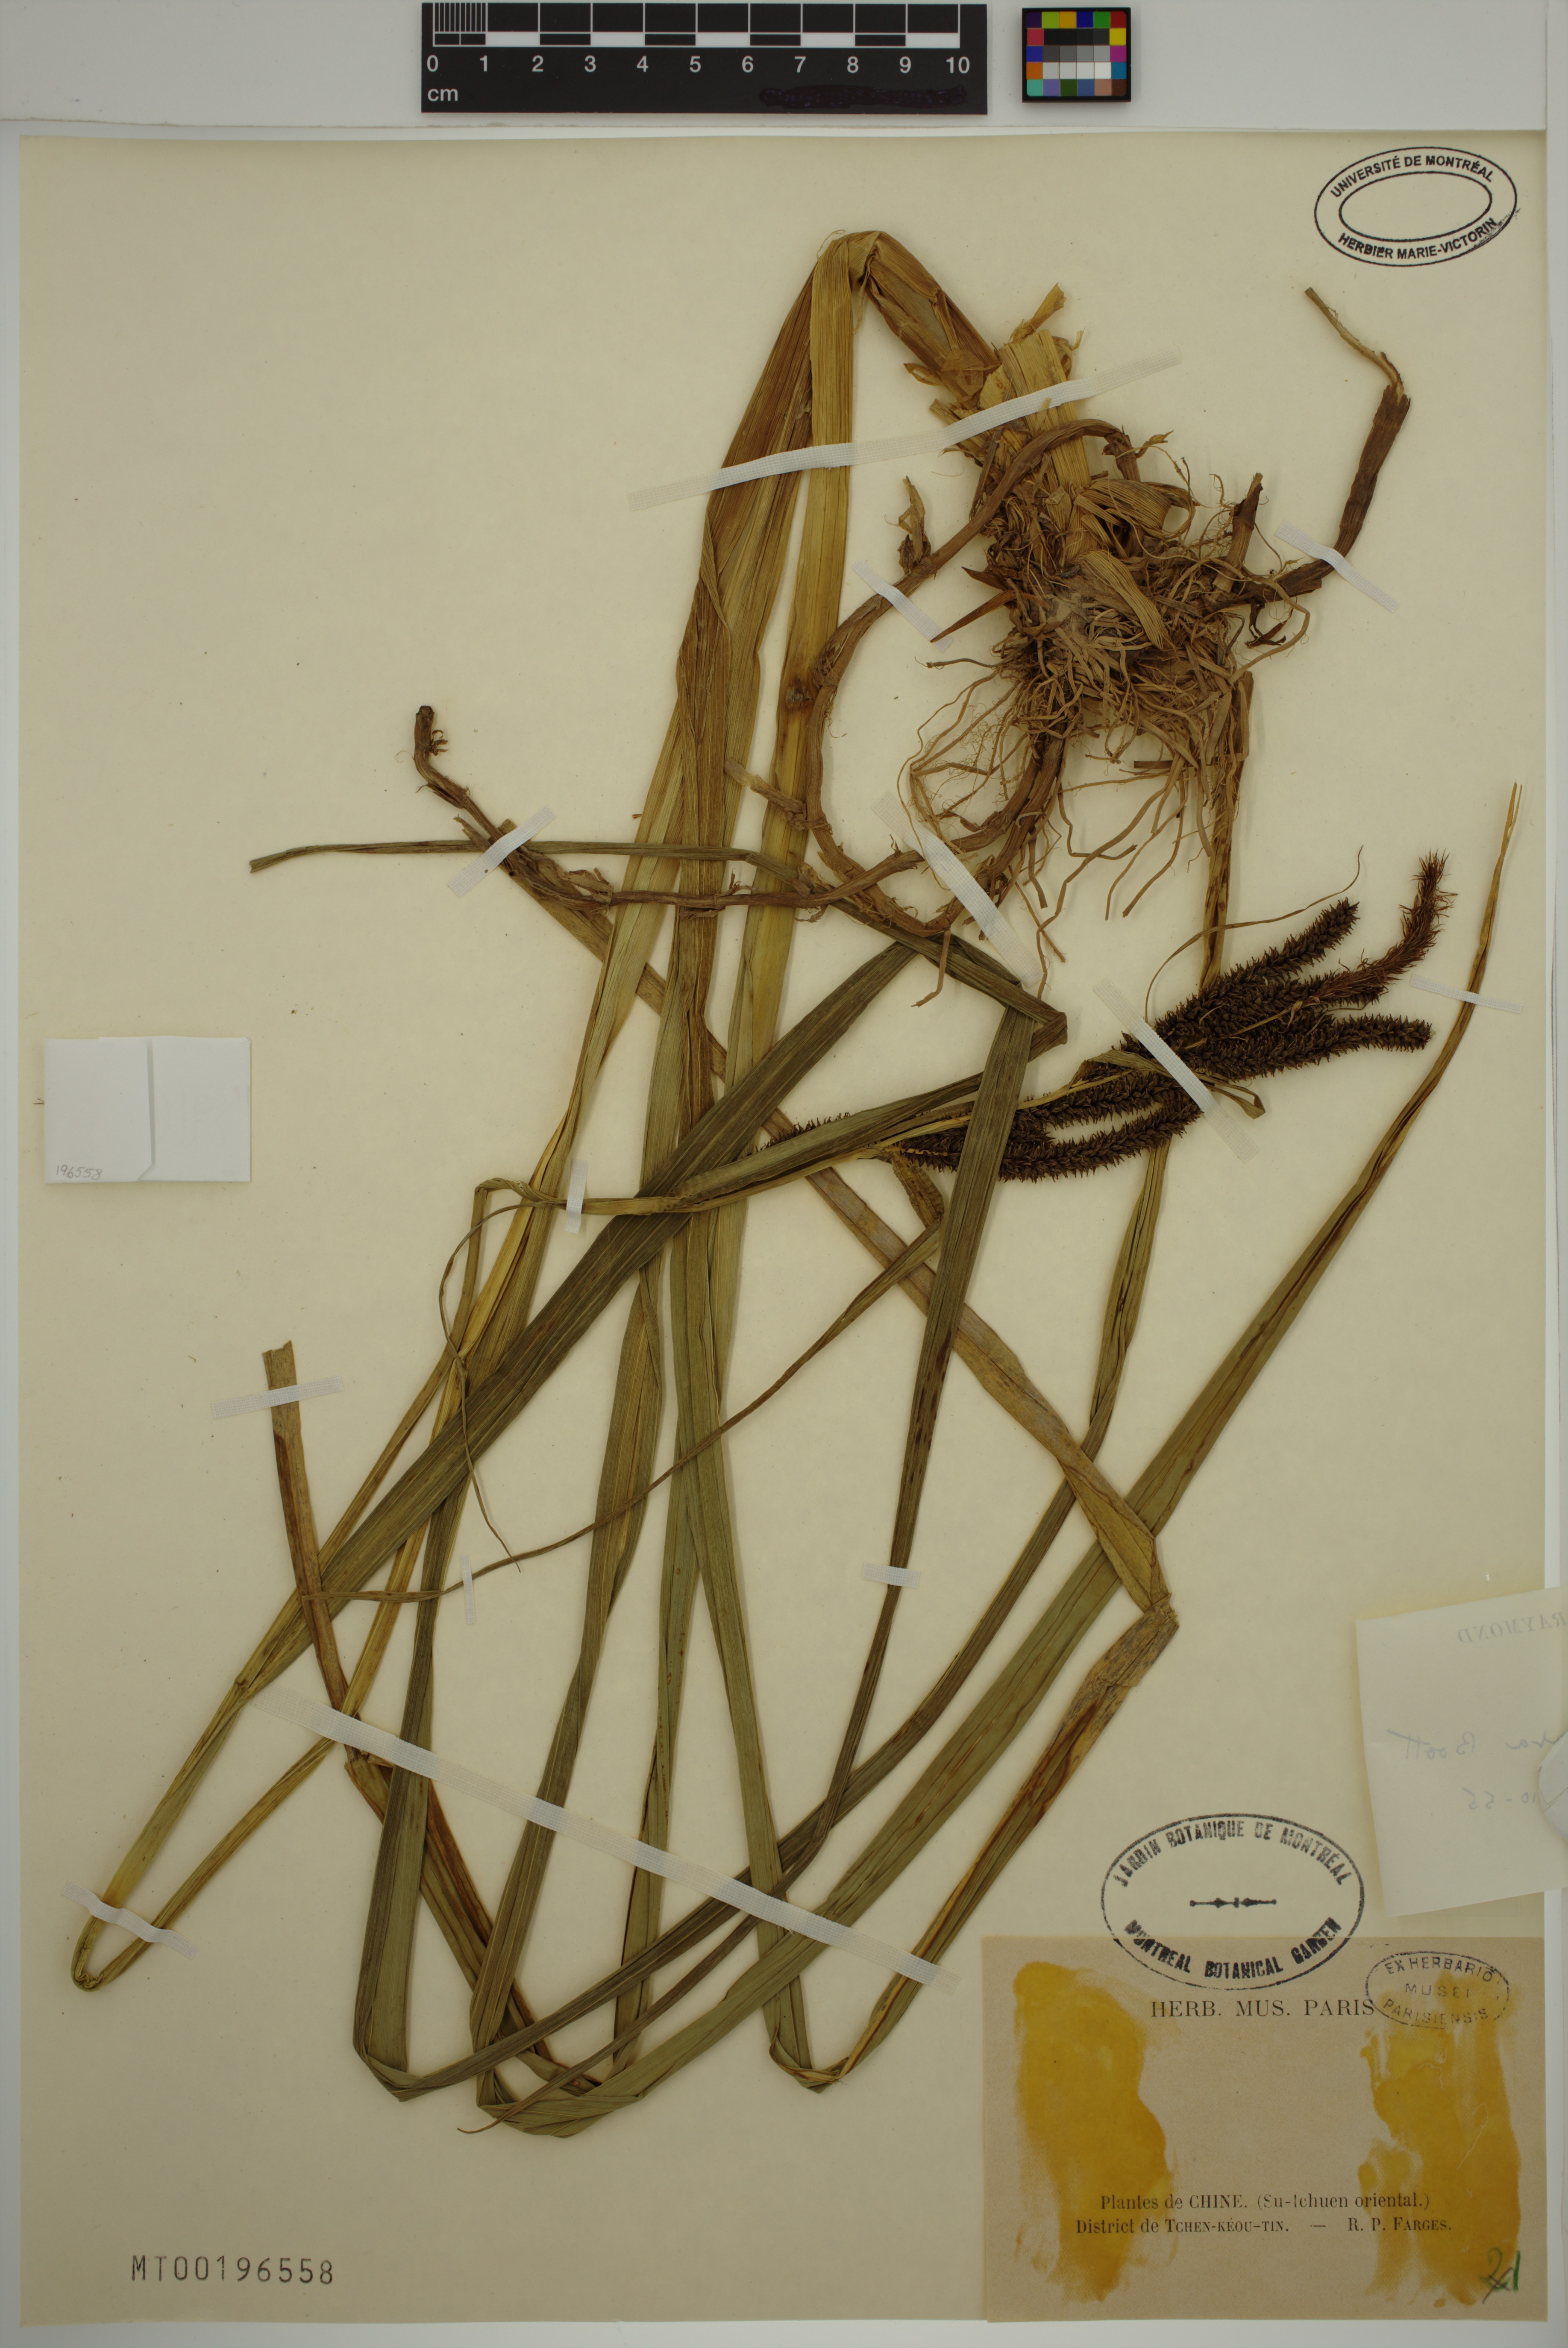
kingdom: Plantae
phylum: Tracheophyta
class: Liliopsida
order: Poales
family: Cyperaceae
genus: Carex
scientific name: Carex dispalata
